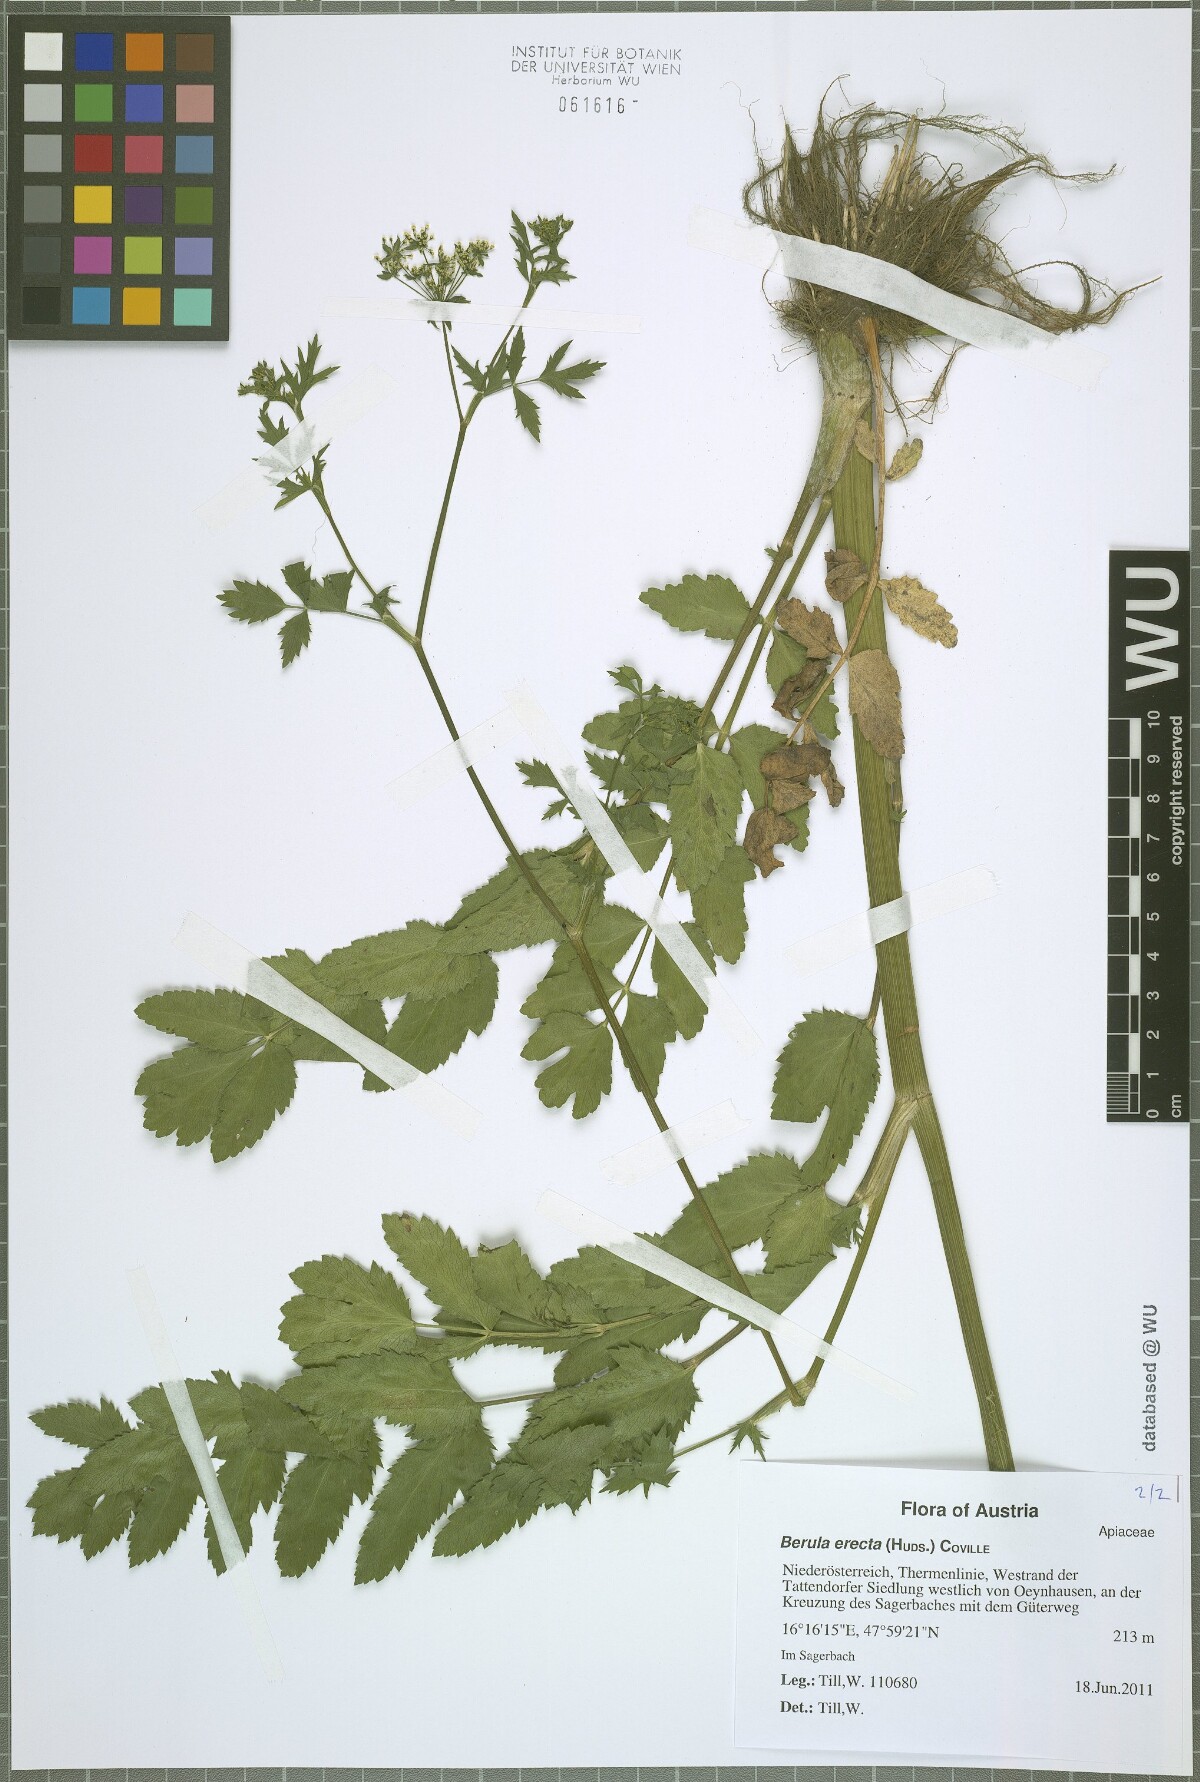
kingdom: Plantae
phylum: Tracheophyta
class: Magnoliopsida
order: Apiales
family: Apiaceae
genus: Berula
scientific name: Berula erecta
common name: Lesser water-parsnip
